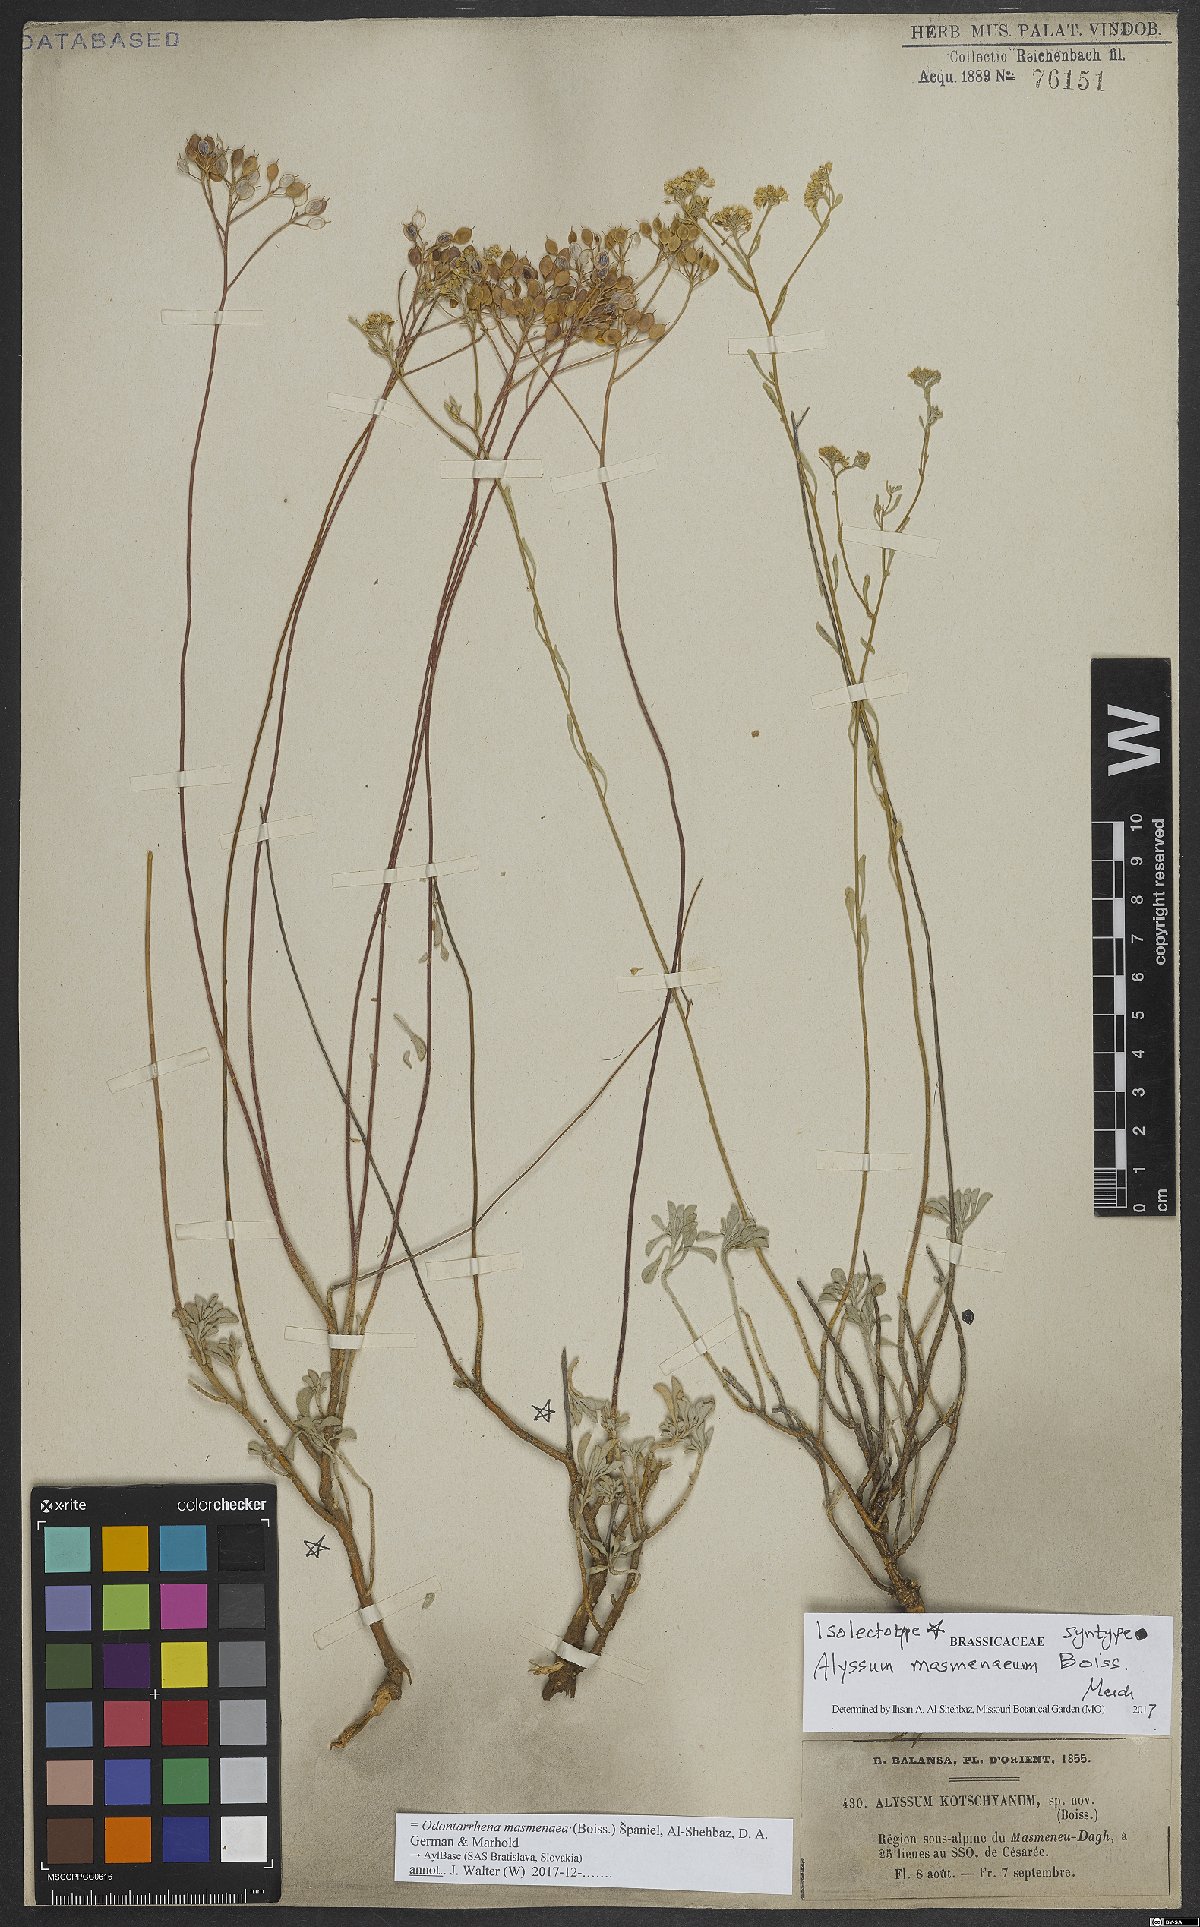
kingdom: Plantae
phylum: Tracheophyta
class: Magnoliopsida
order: Brassicales
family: Brassicaceae
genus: Odontarrhena
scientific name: Odontarrhena masmenaea
